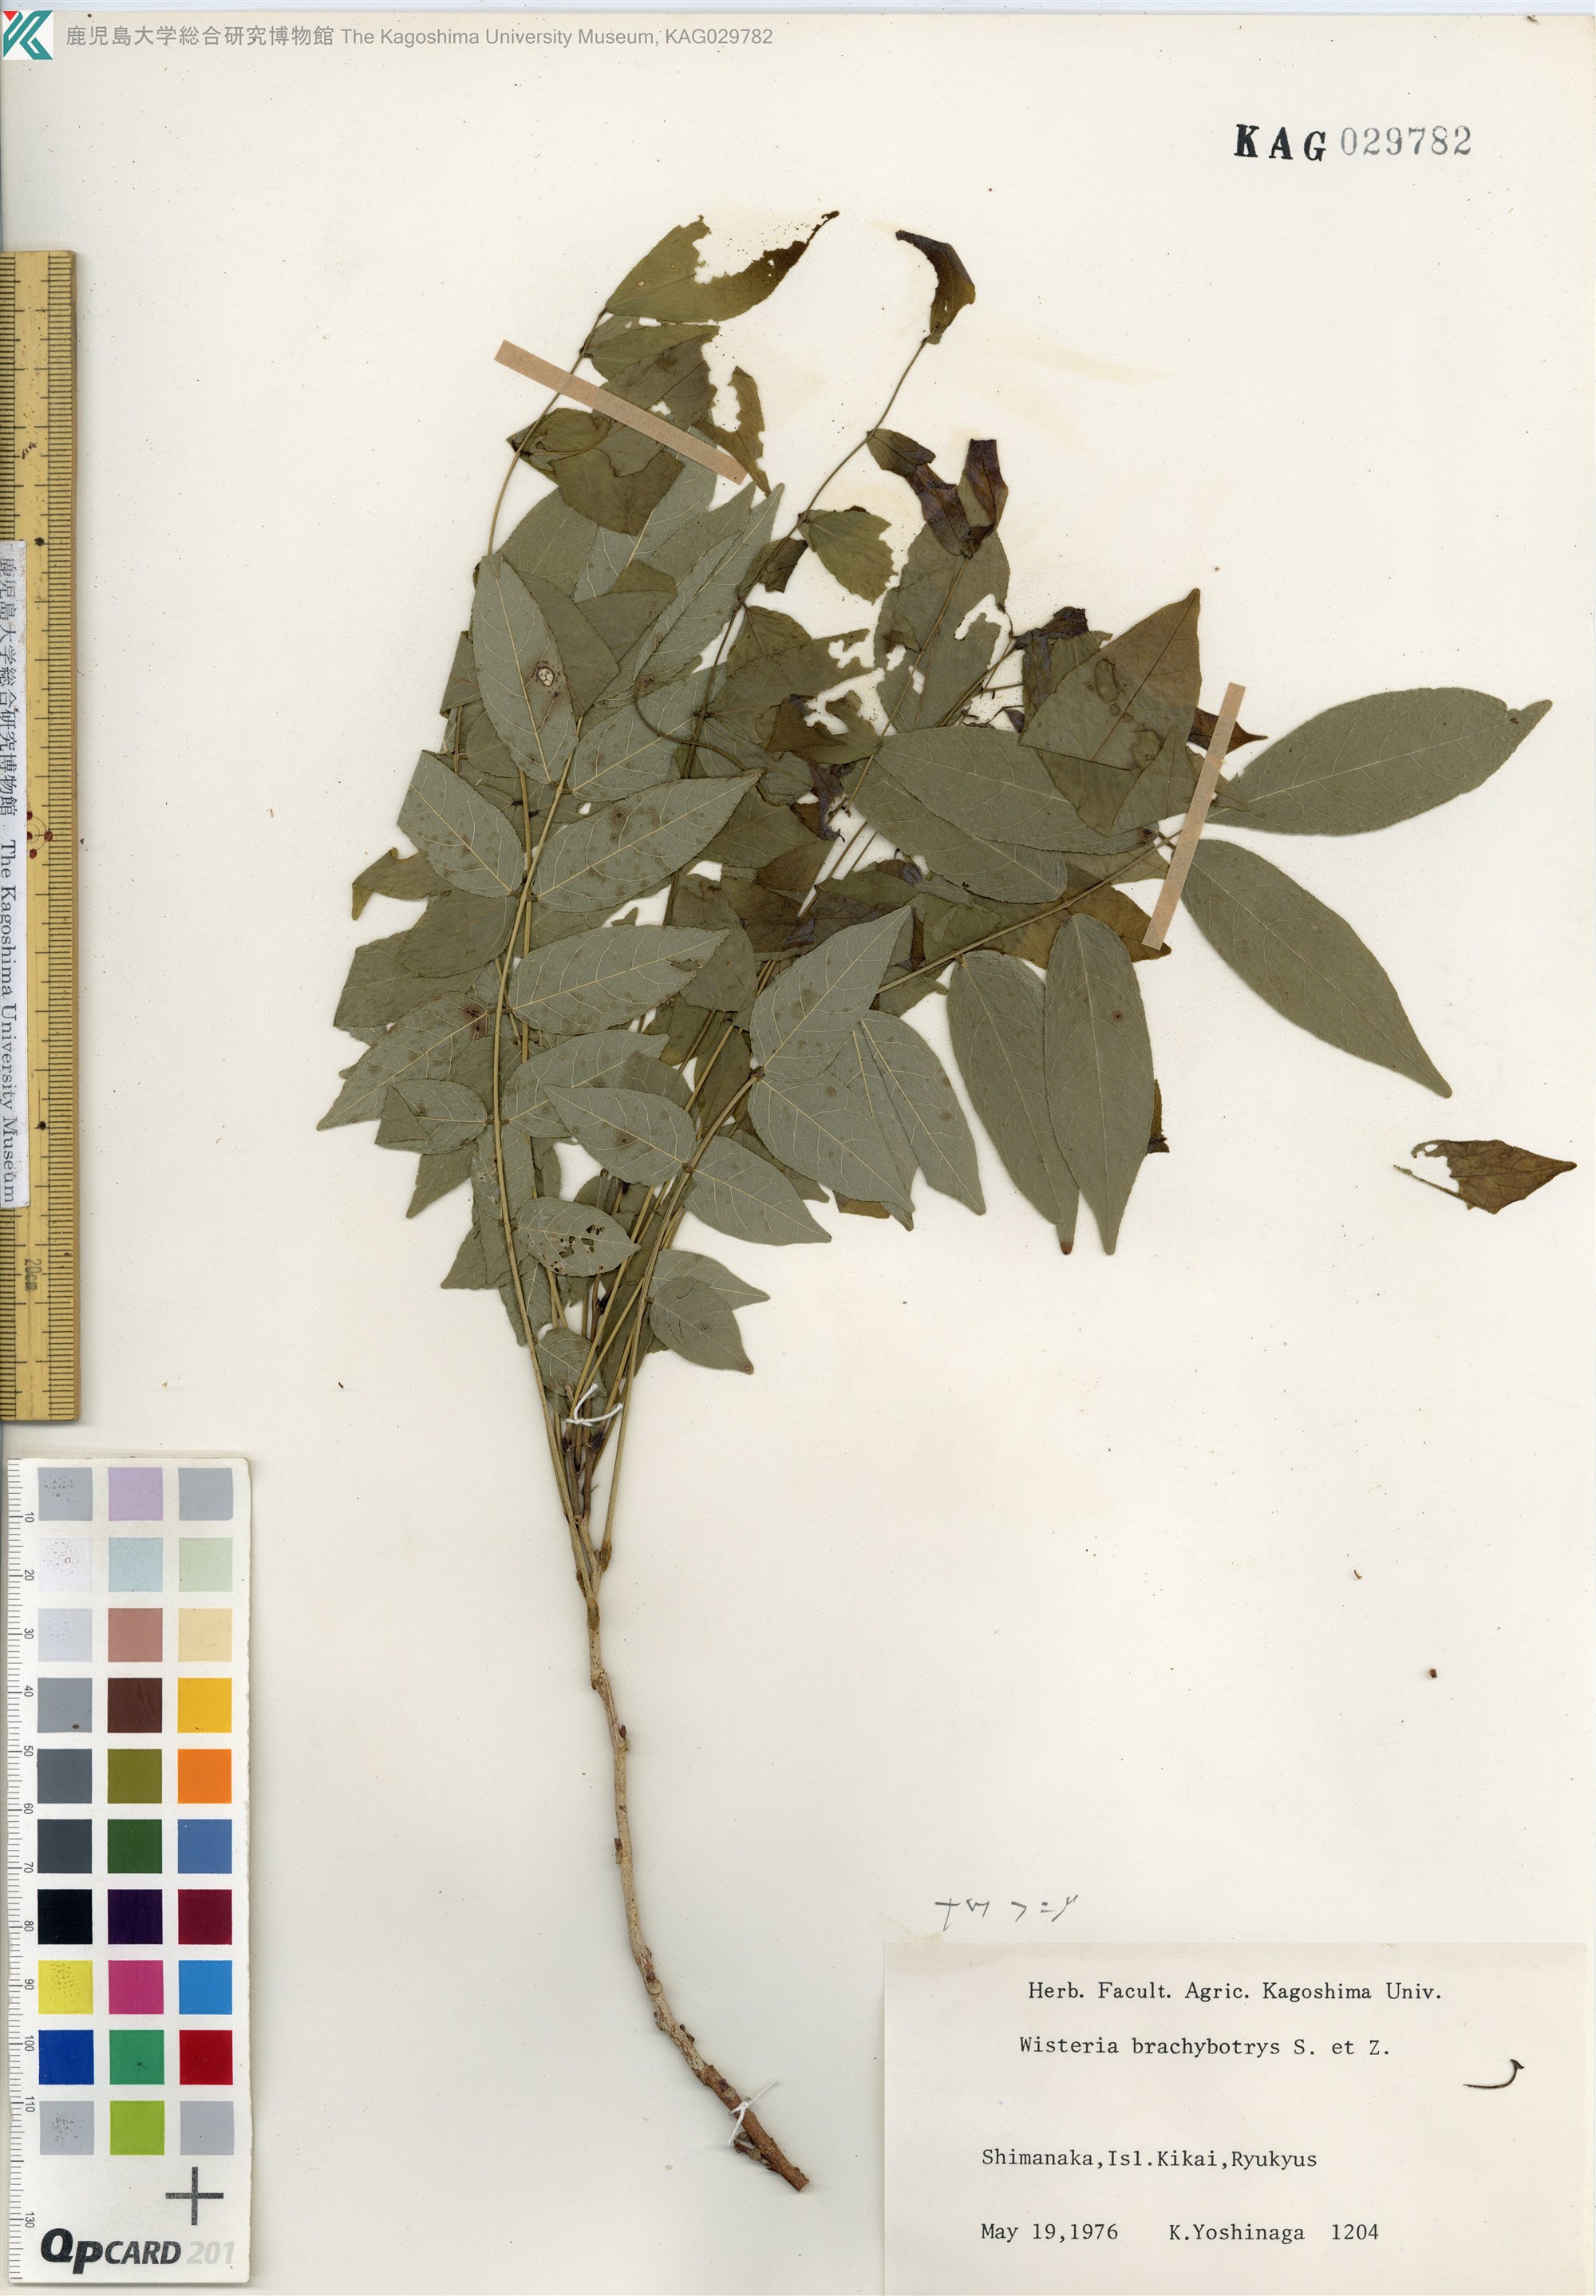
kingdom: Plantae
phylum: Tracheophyta
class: Magnoliopsida
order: Fabales
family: Fabaceae
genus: Wisteria
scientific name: Wisteria brachybotrys
